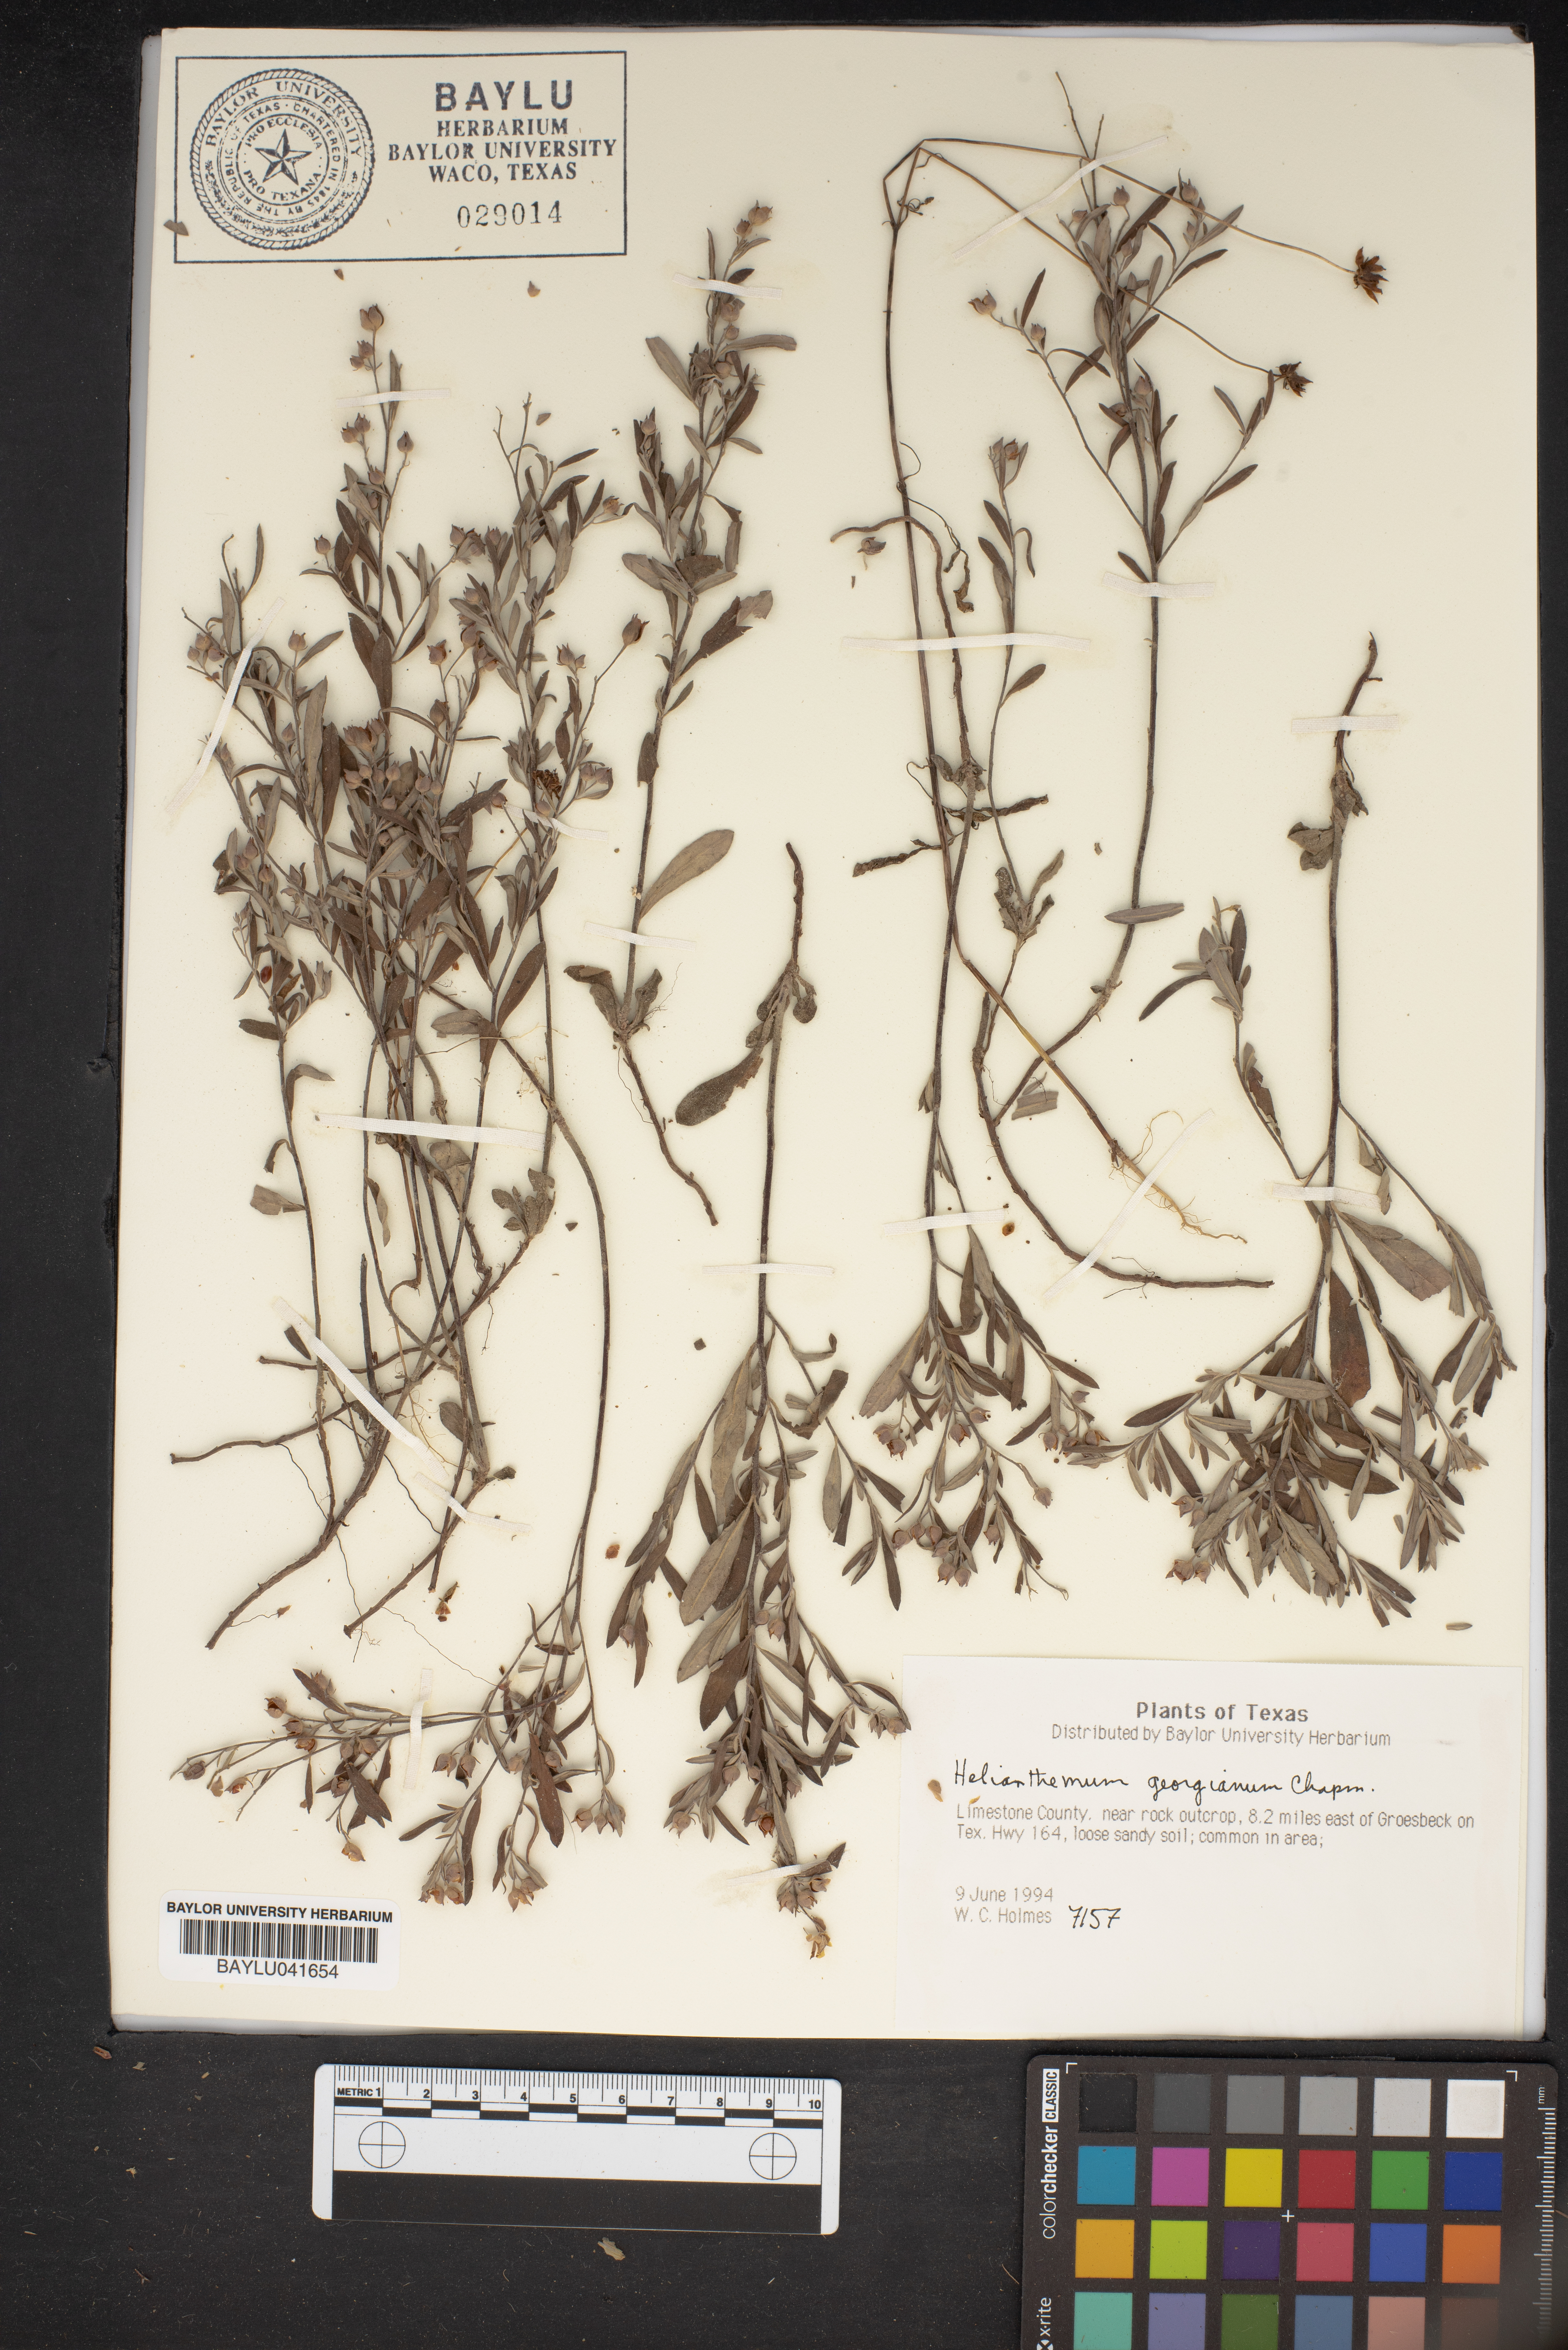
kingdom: Plantae
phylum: Tracheophyta
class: Magnoliopsida
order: Malvales
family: Cistaceae
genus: Crocanthemum
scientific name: Crocanthemum georgianum
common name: Georgia frostweed
